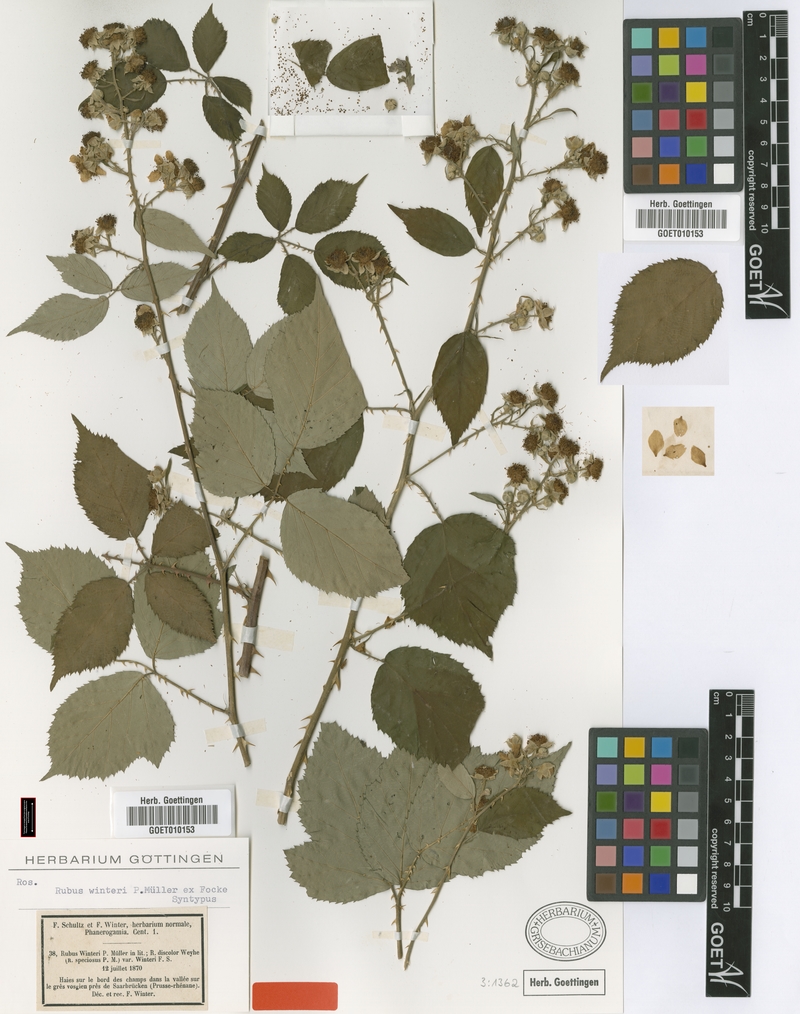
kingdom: Plantae
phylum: Tracheophyta
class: Magnoliopsida
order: Rosales
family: Rosaceae
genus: Rubus
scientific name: Rubus winteri
